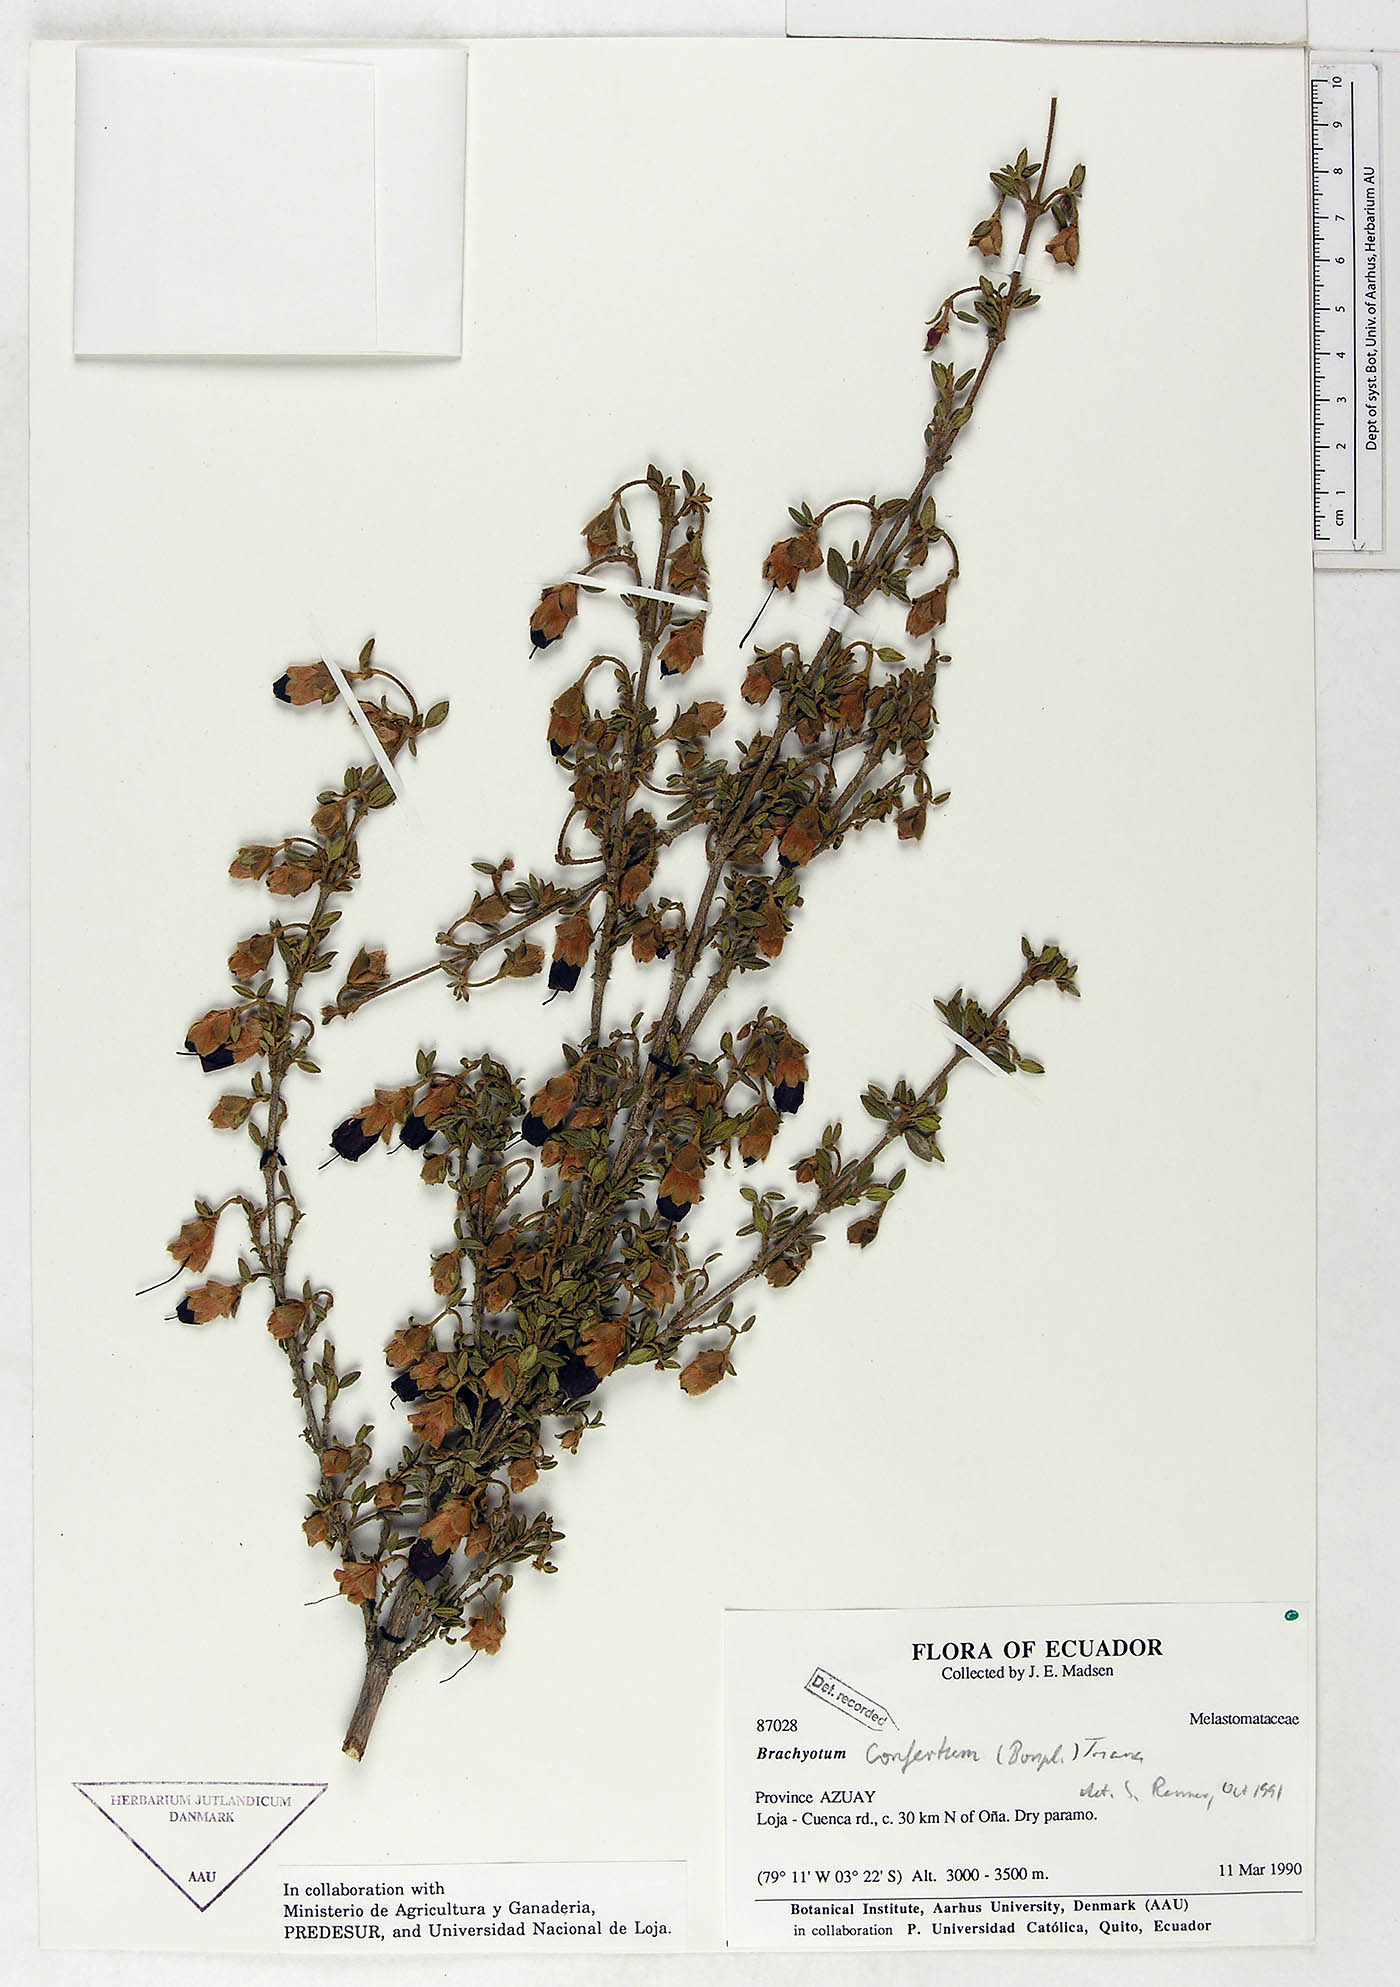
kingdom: Plantae
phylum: Tracheophyta
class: Magnoliopsida
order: Myrtales
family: Melastomataceae
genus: Brachyotum
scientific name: Brachyotum confertum
